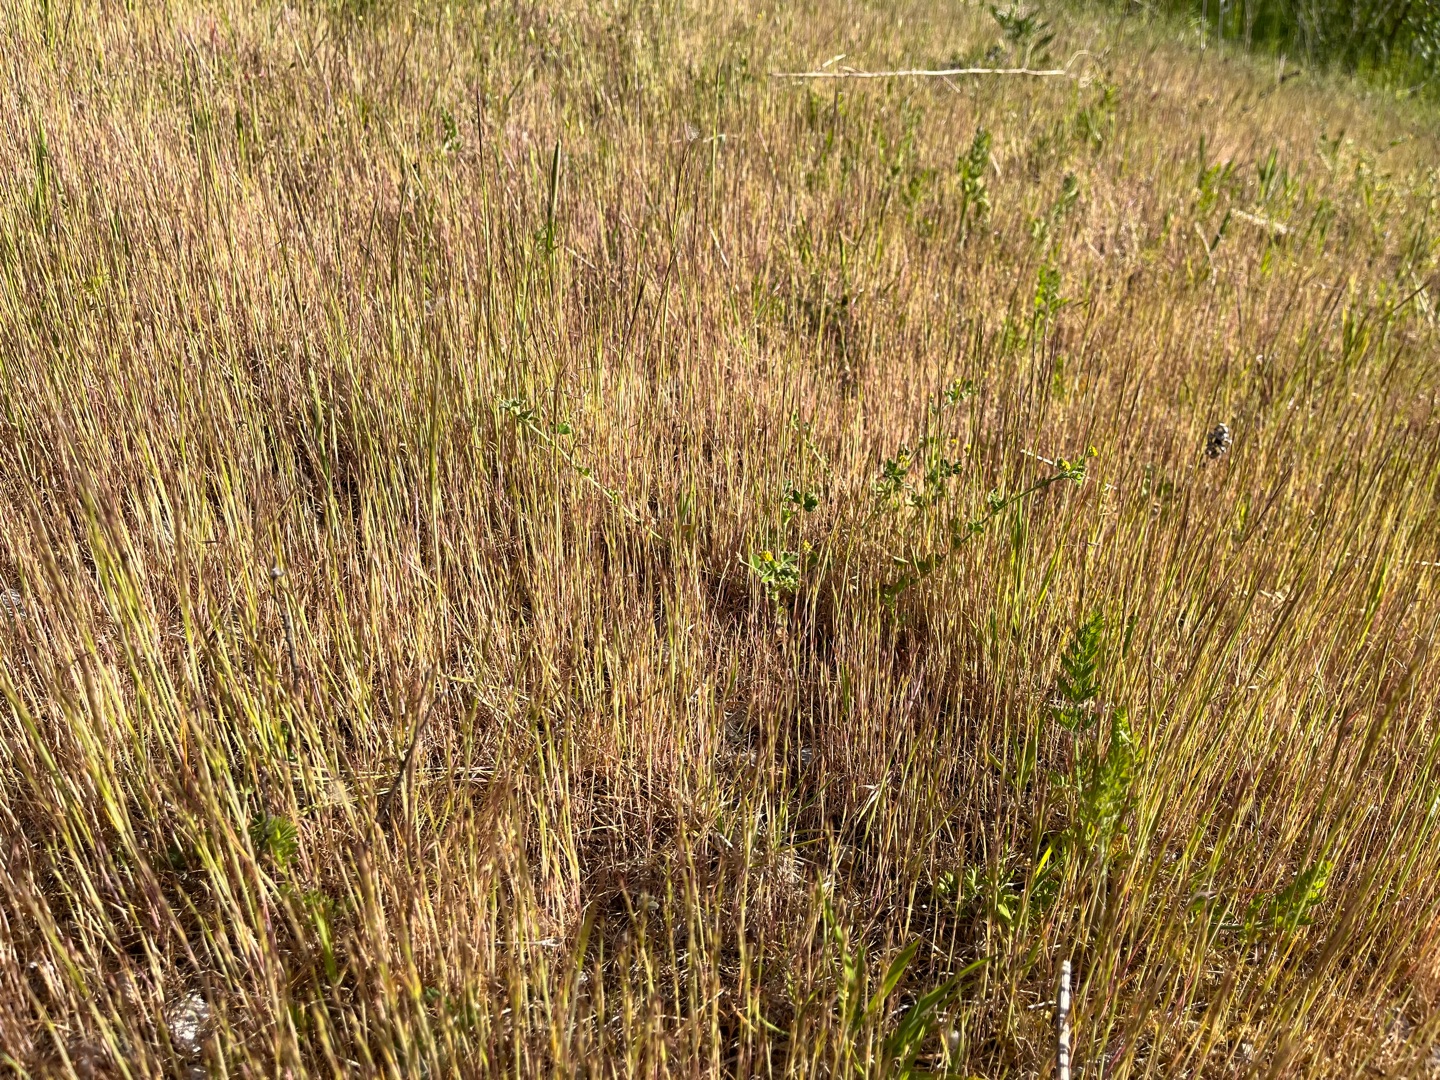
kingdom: Plantae
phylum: Tracheophyta
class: Liliopsida
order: Poales
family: Poaceae
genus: Festuca
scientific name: Festuca myuros
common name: Stor væselhale
